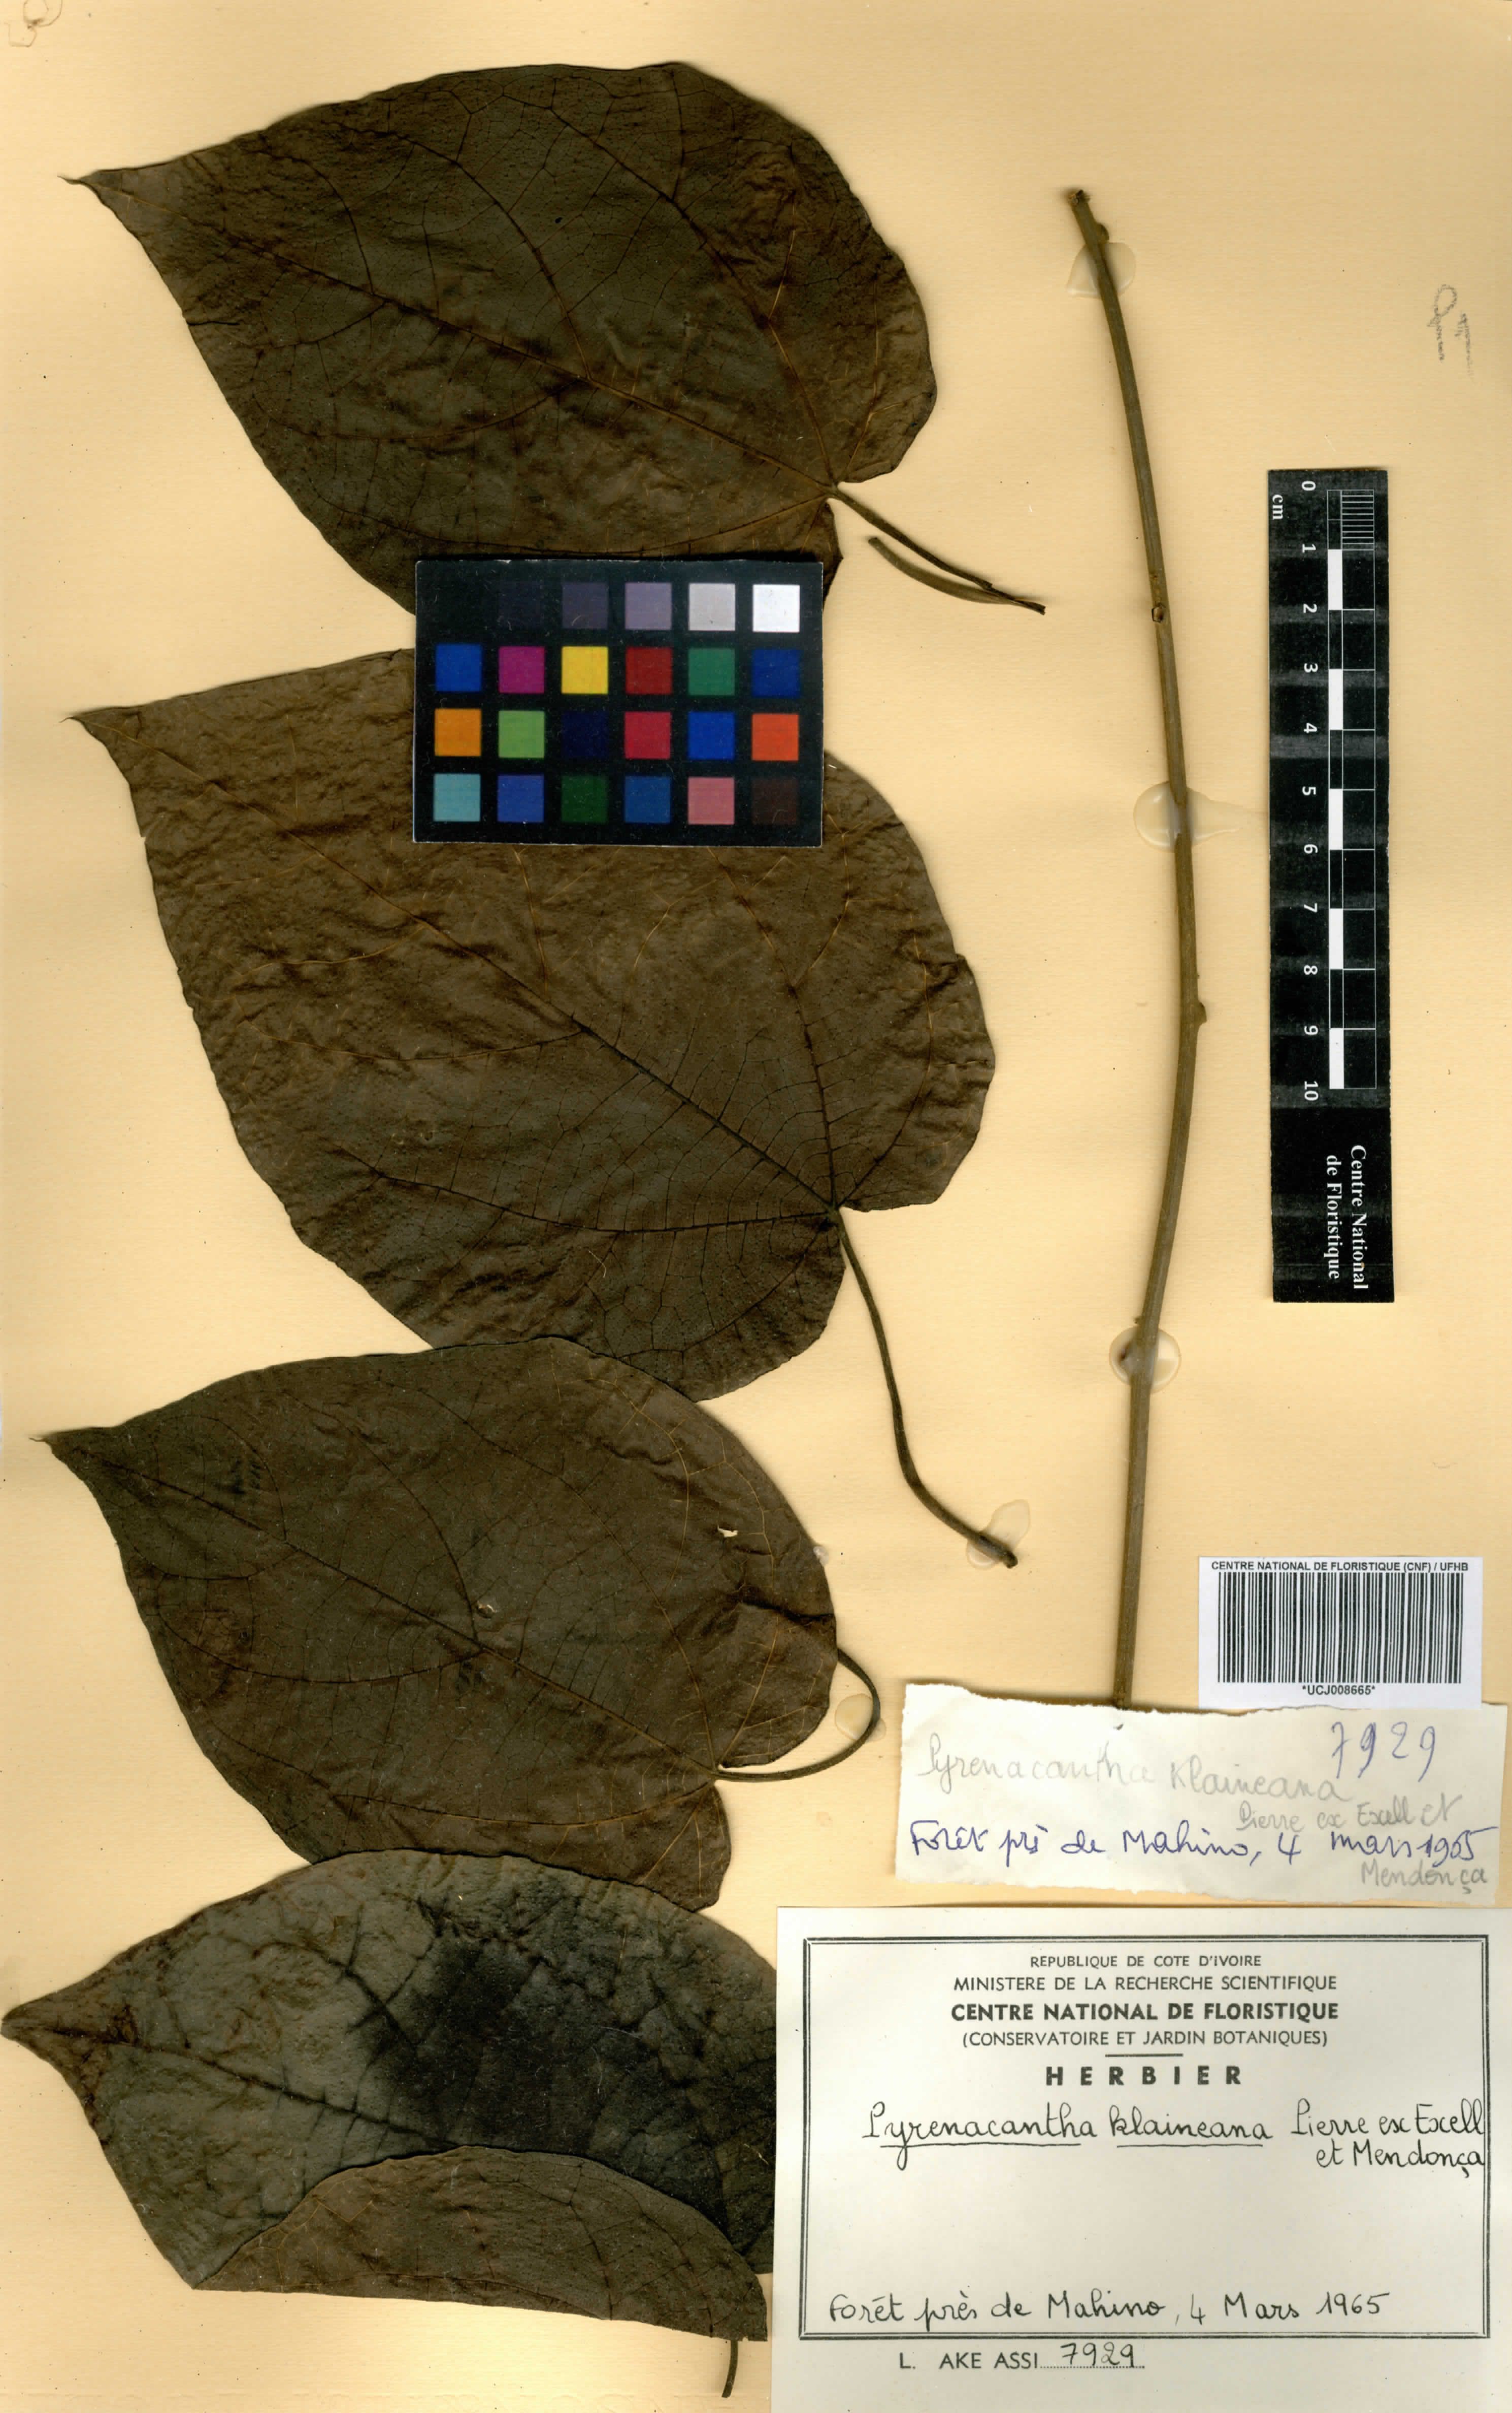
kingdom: Plantae
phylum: Tracheophyta
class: Magnoliopsida
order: Icacinales
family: Icacinaceae
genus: Pyrenacantha
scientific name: Pyrenacantha klaineana
